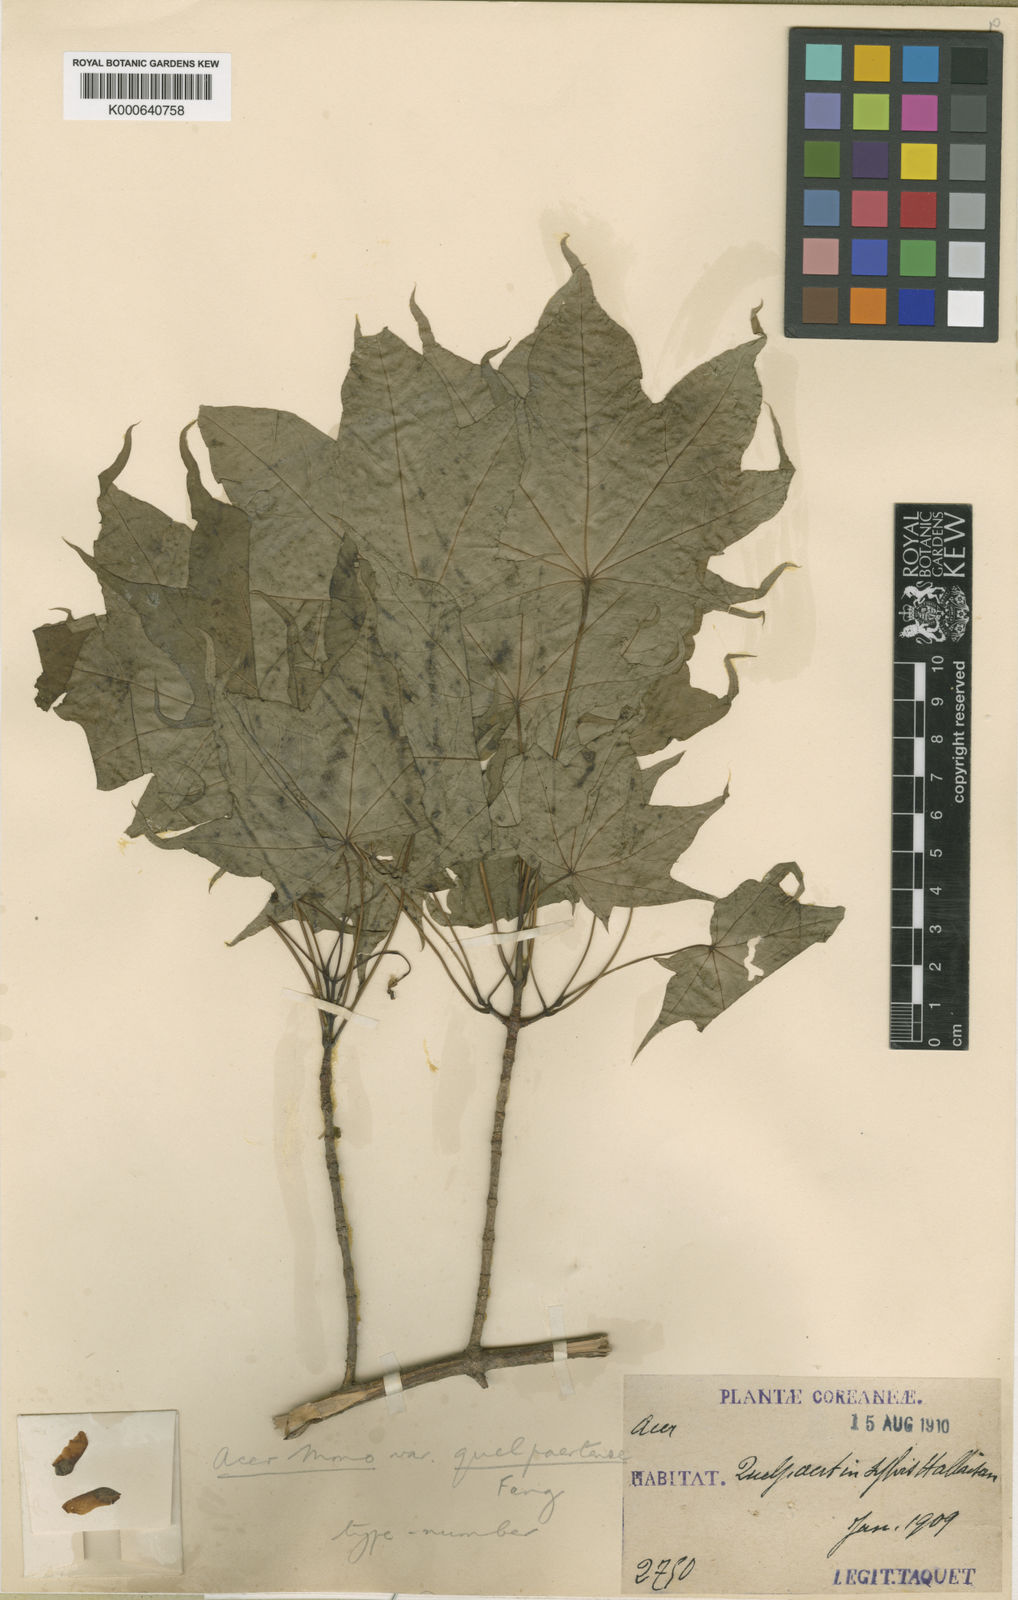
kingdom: Plantae
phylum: Tracheophyta
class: Magnoliopsida
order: Sapindales
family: Sapindaceae
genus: Acer
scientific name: Acer pictum
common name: The painted maple
